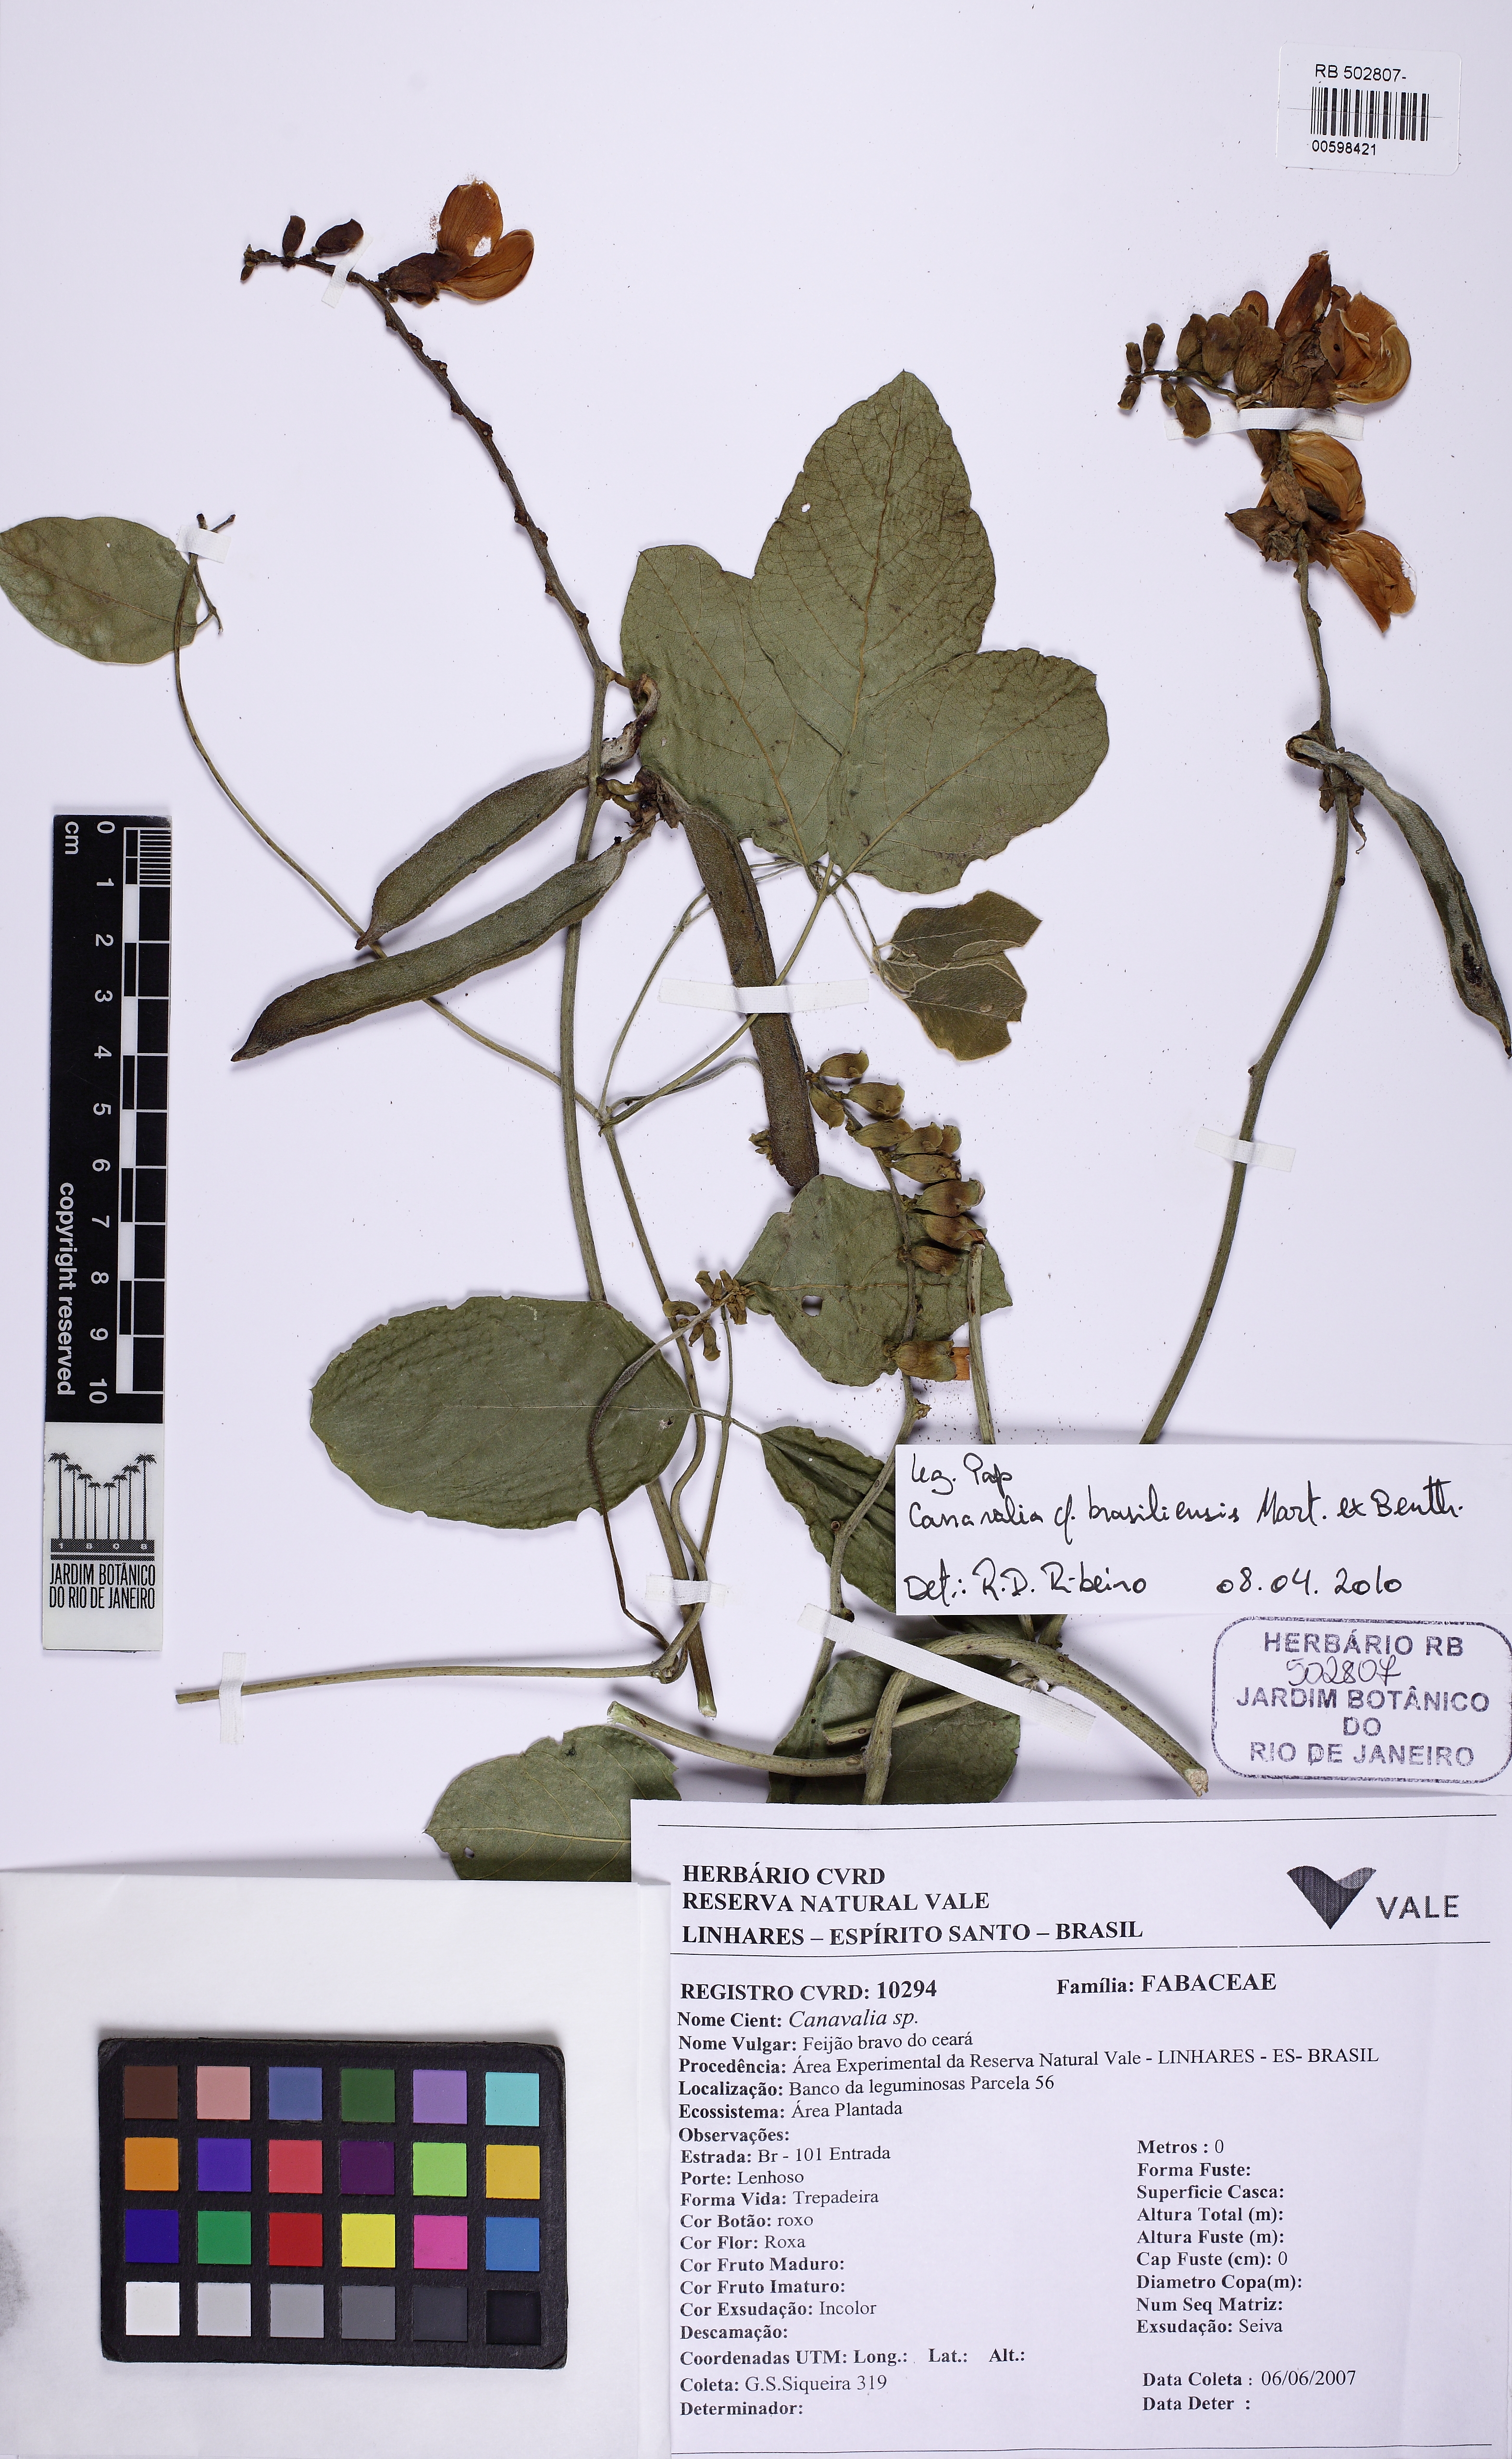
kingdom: Plantae
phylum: Tracheophyta
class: Magnoliopsida
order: Fabales
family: Fabaceae
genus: Canavalia
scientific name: Canavalia brasiliensis
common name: Barbicou-bean
